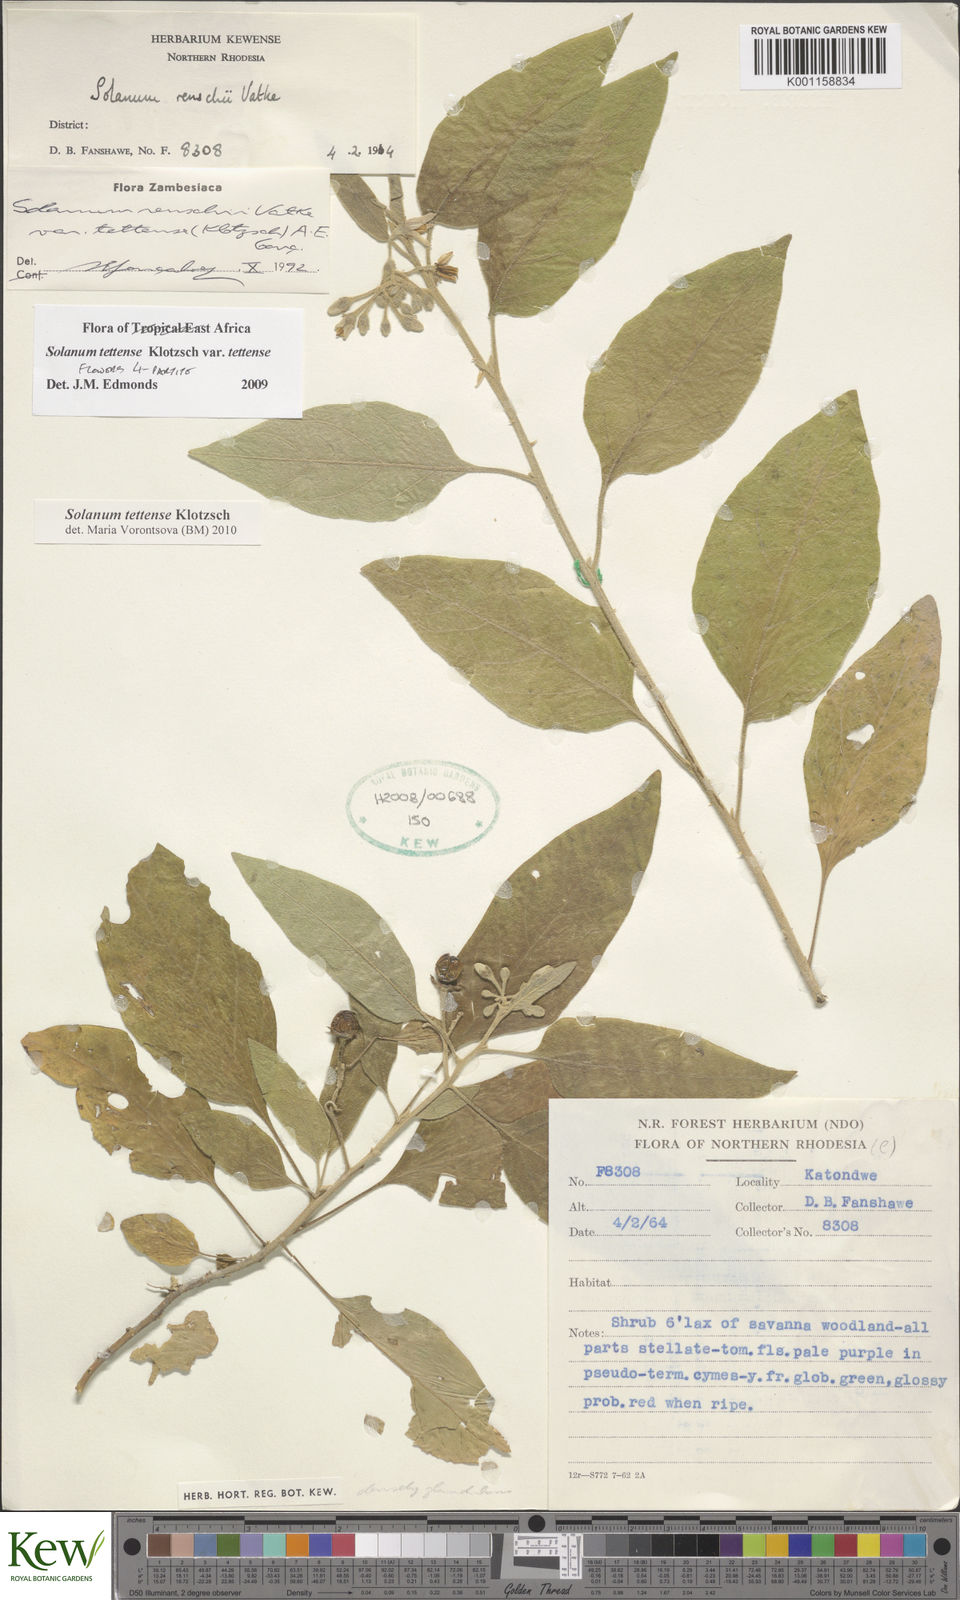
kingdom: Plantae
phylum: Tracheophyta
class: Magnoliopsida
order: Solanales
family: Solanaceae
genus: Solanum
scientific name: Solanum tettense
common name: Mozambique bitter apple
